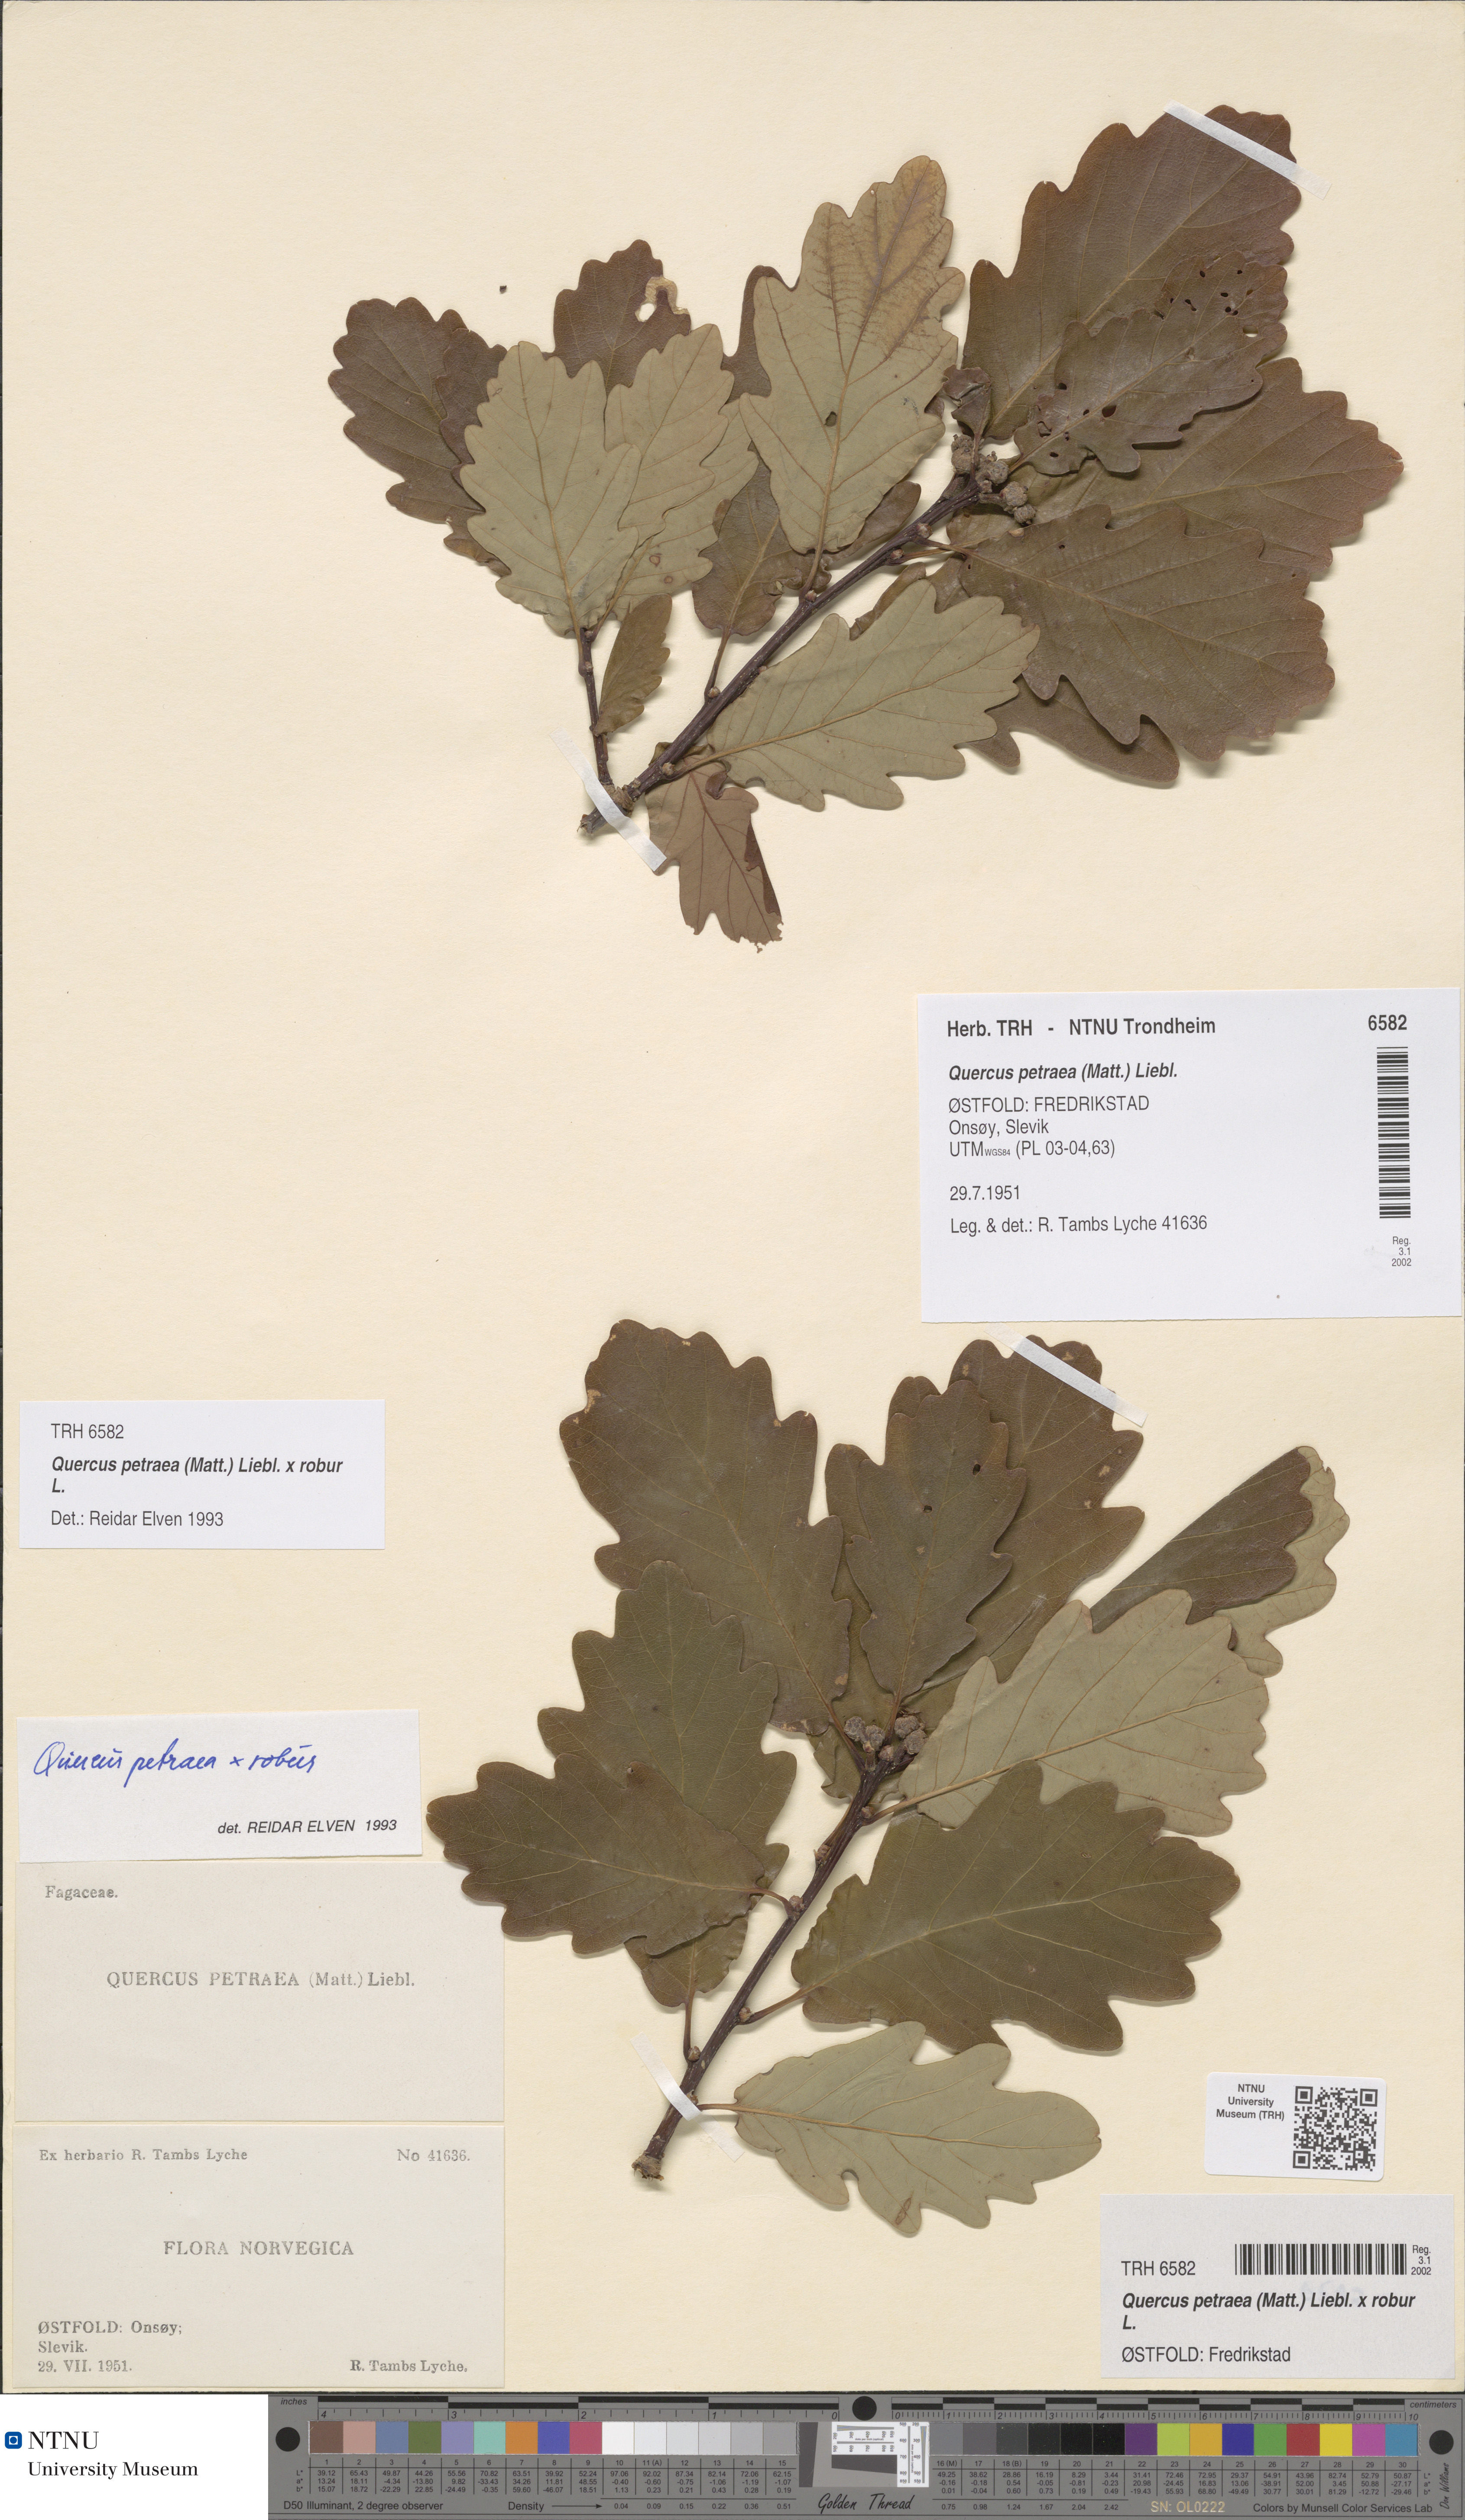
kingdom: Plantae
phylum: Tracheophyta
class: Magnoliopsida
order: Fagales
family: Fagaceae
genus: Quercus
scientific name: Quercus rosacea
